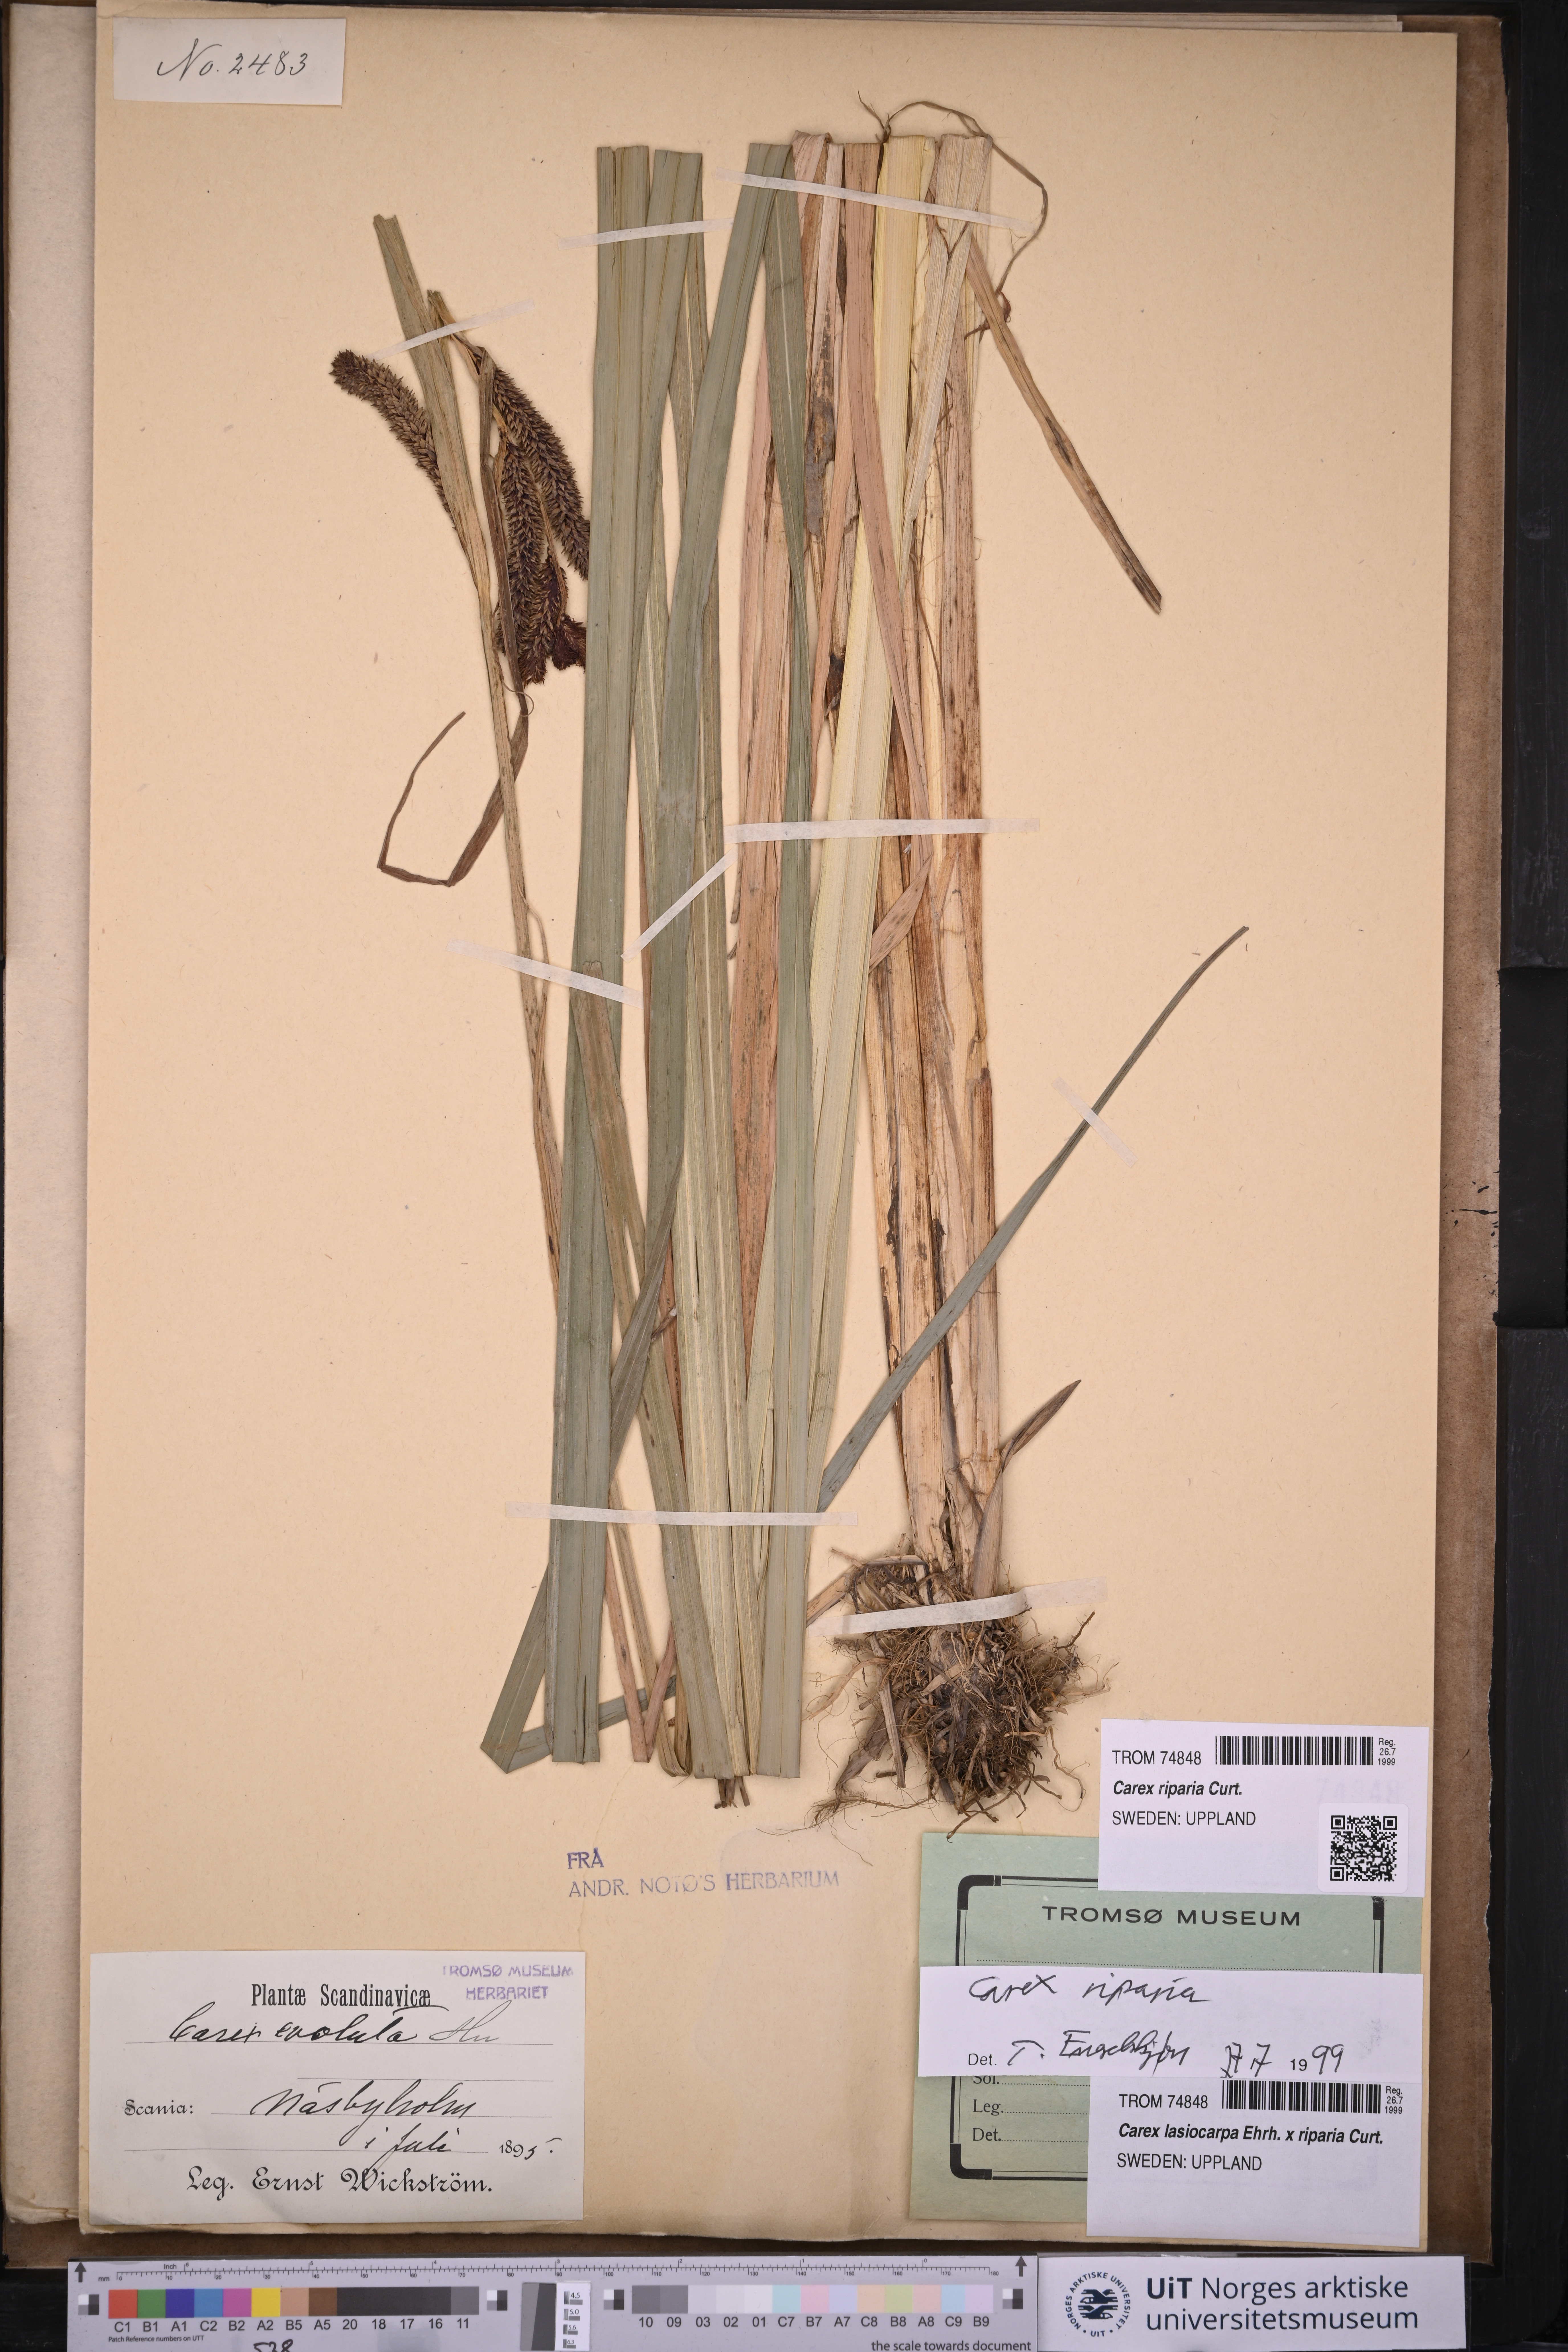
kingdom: Plantae
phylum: Tracheophyta
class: Liliopsida
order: Poales
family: Cyperaceae
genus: Carex
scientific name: Carex riparia
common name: Greater pond-sedge
